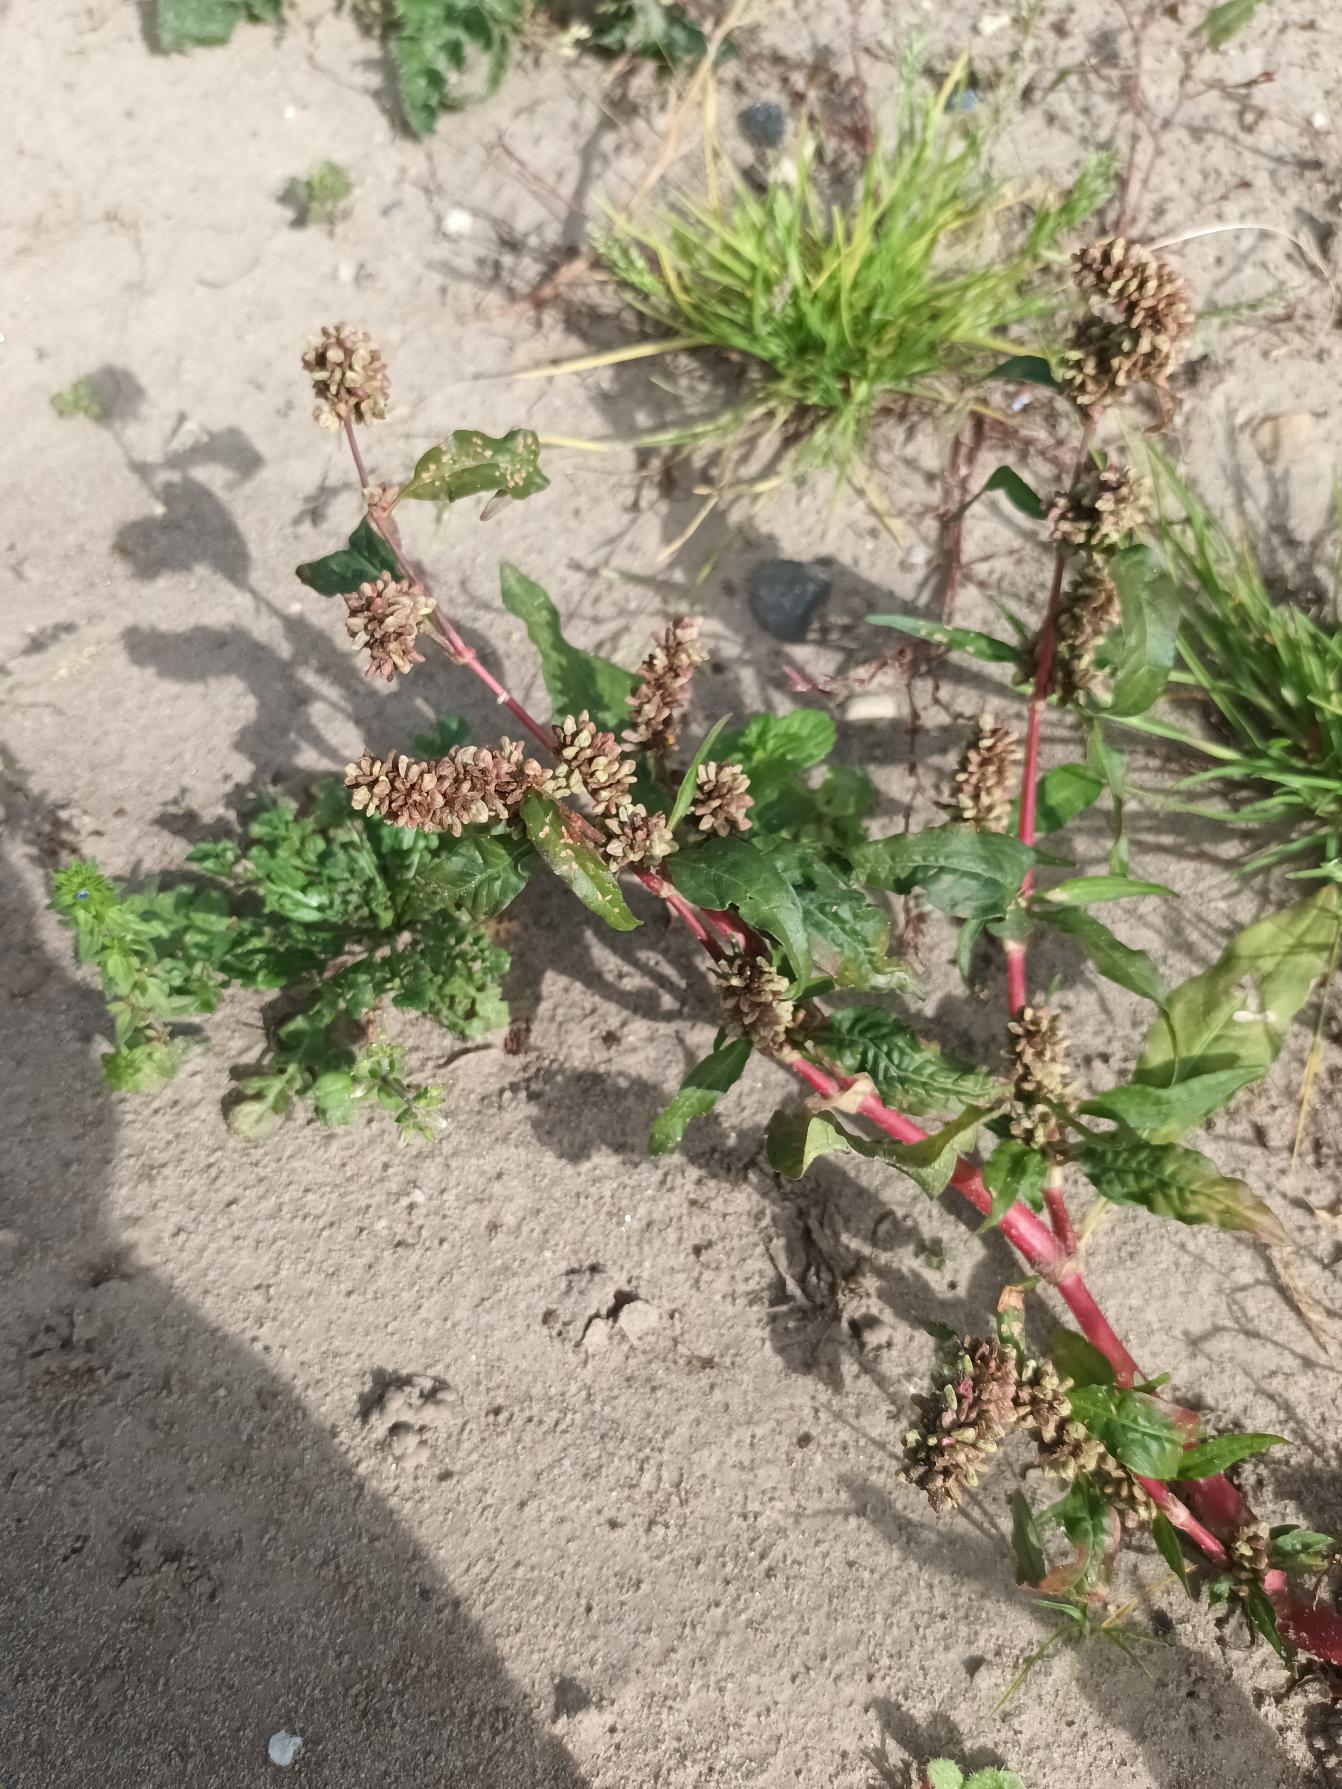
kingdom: Plantae
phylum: Tracheophyta
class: Magnoliopsida
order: Caryophyllales
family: Polygonaceae
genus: Persicaria
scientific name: Persicaria lapathifolia
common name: Knudet pileurt (underart)
